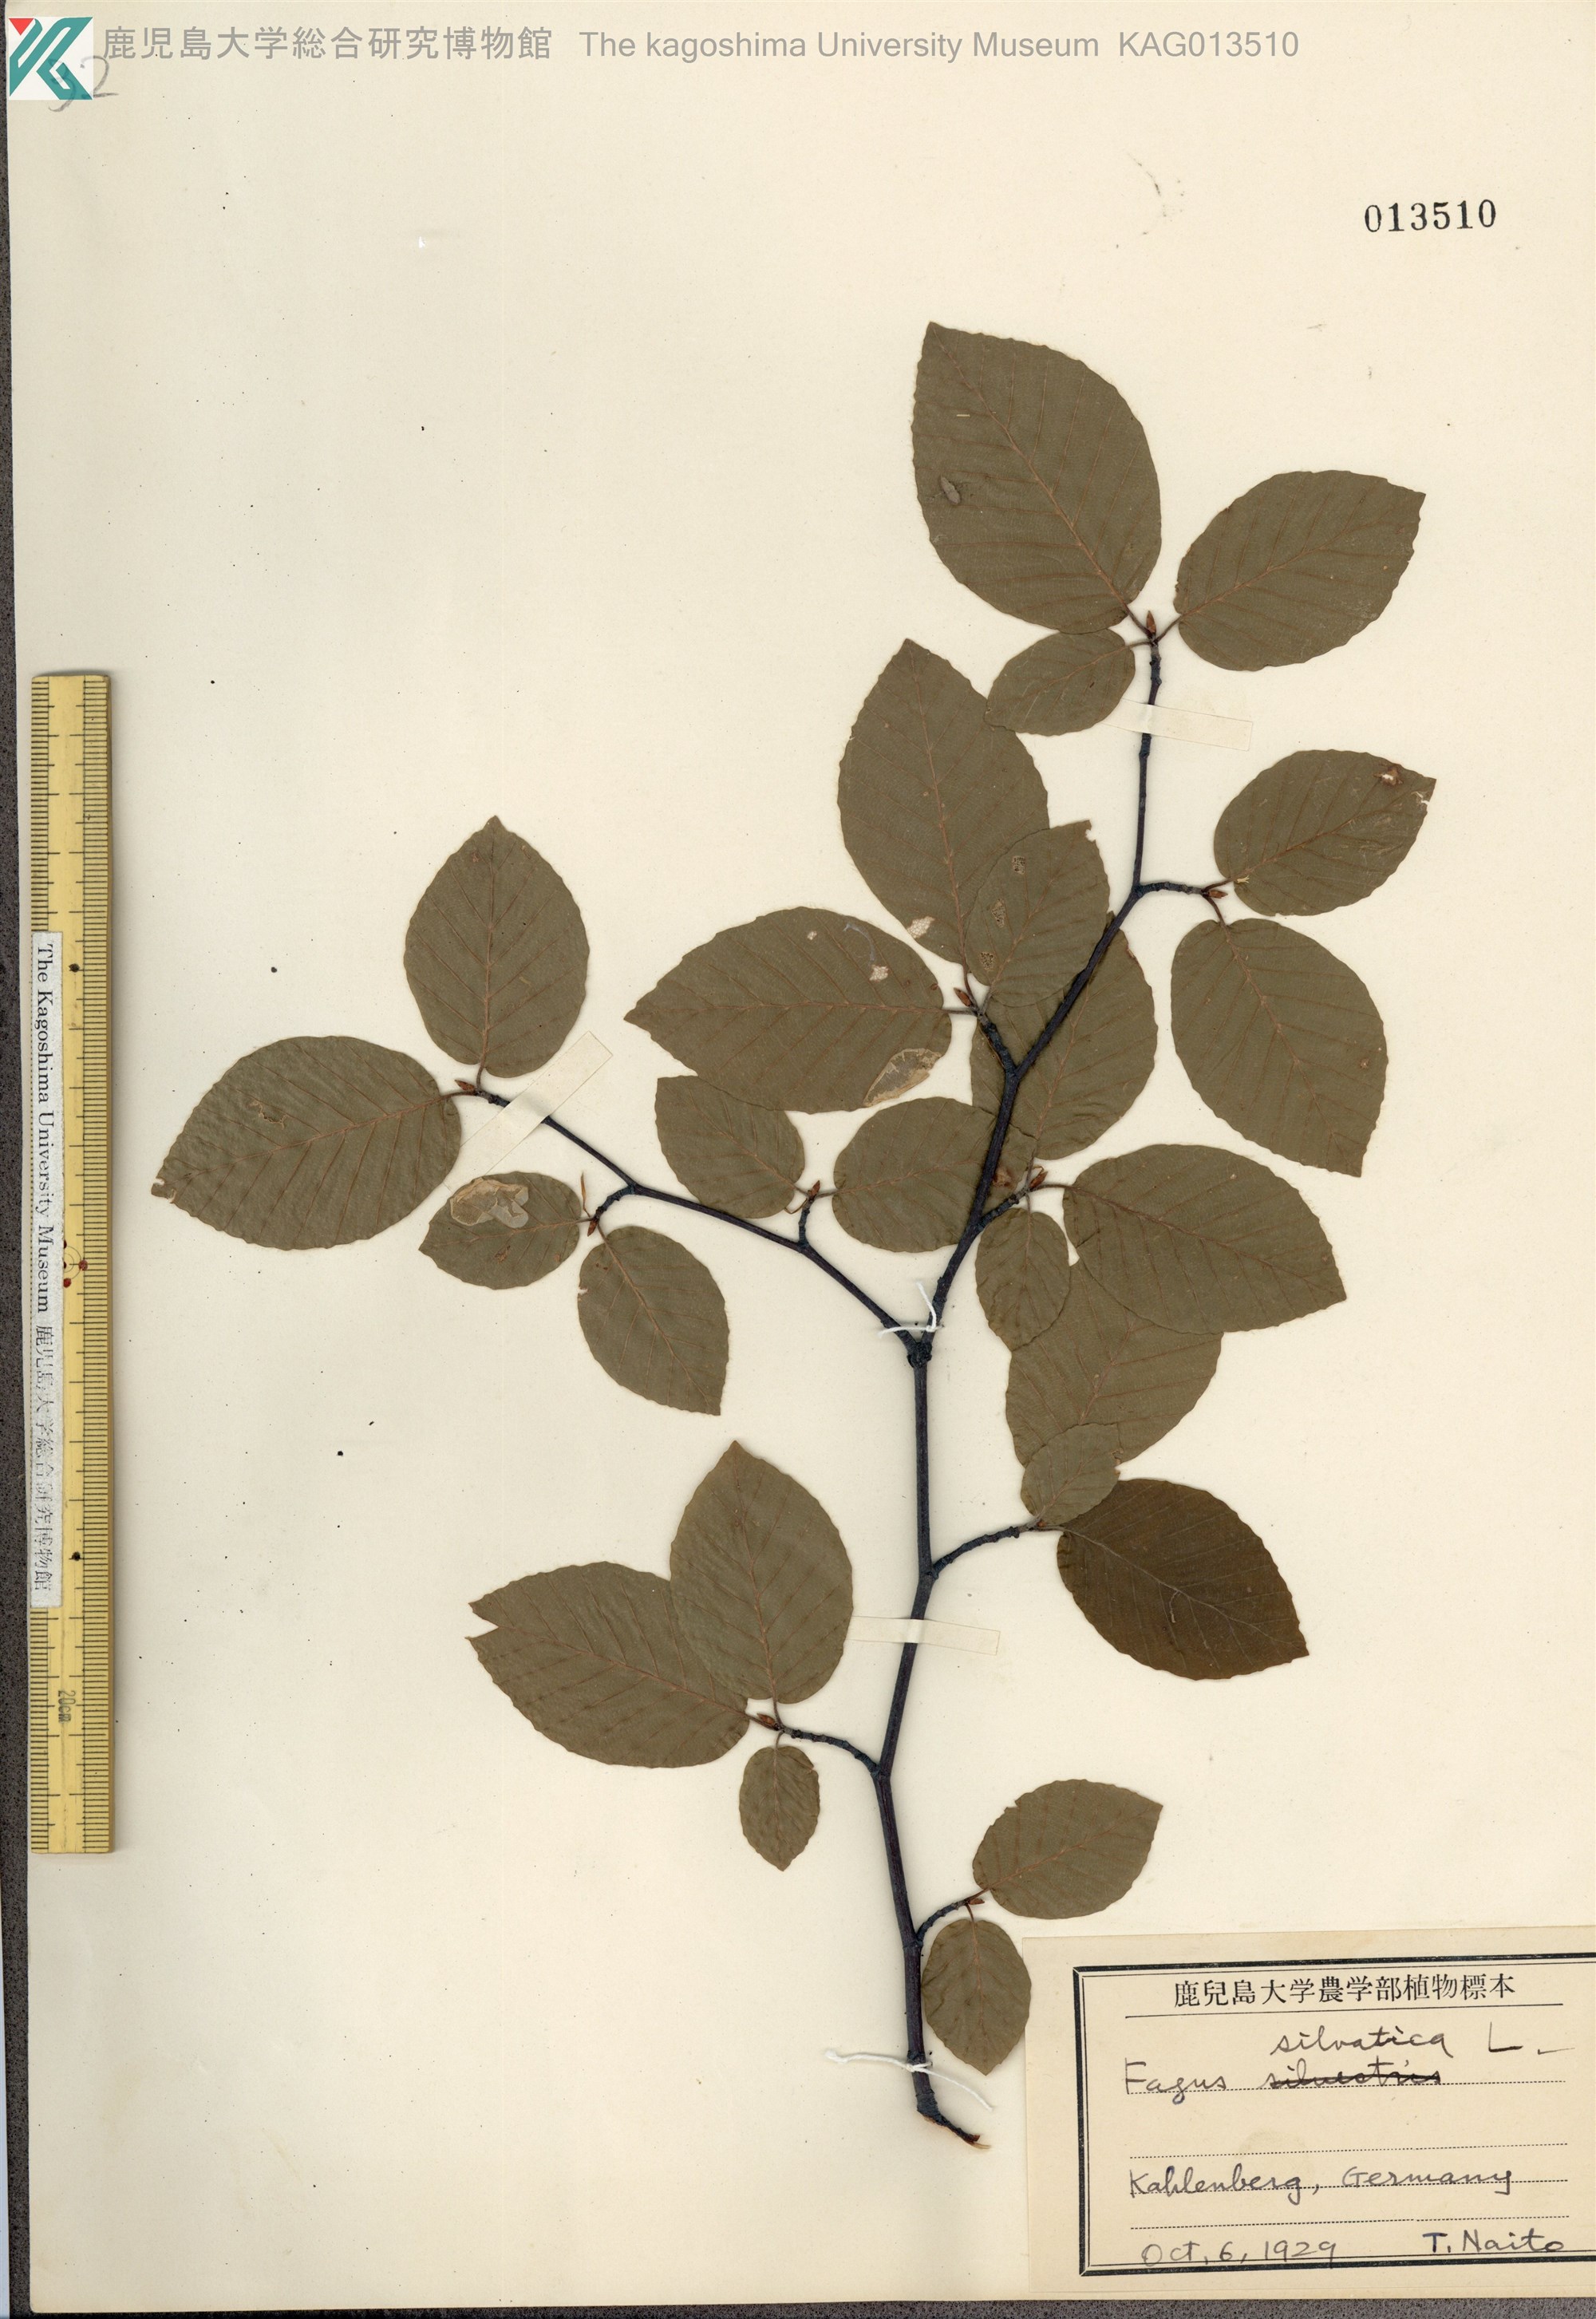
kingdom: Plantae
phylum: Tracheophyta
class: Magnoliopsida
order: Fagales
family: Fagaceae
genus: Fagus
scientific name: Fagus sylvatica
